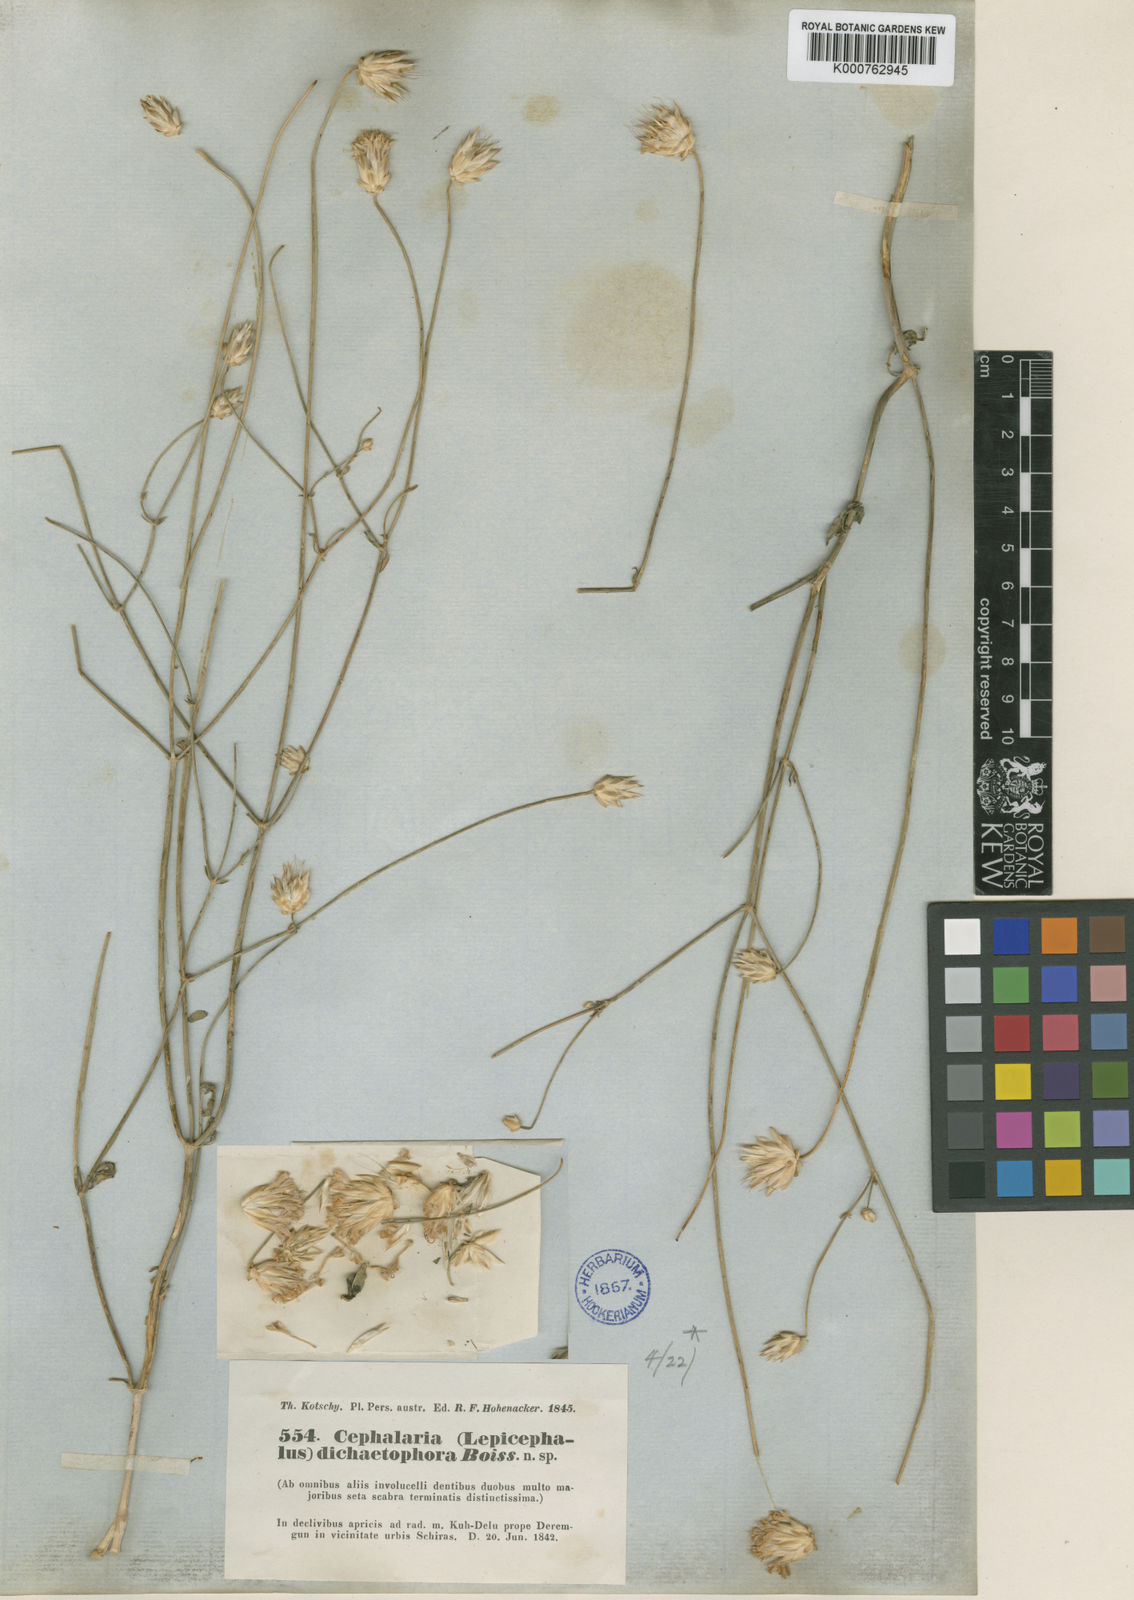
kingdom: Plantae
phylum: Tracheophyta
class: Magnoliopsida
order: Dipsacales
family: Caprifoliaceae
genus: Cephalaria
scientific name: Cephalaria dichaetophora
